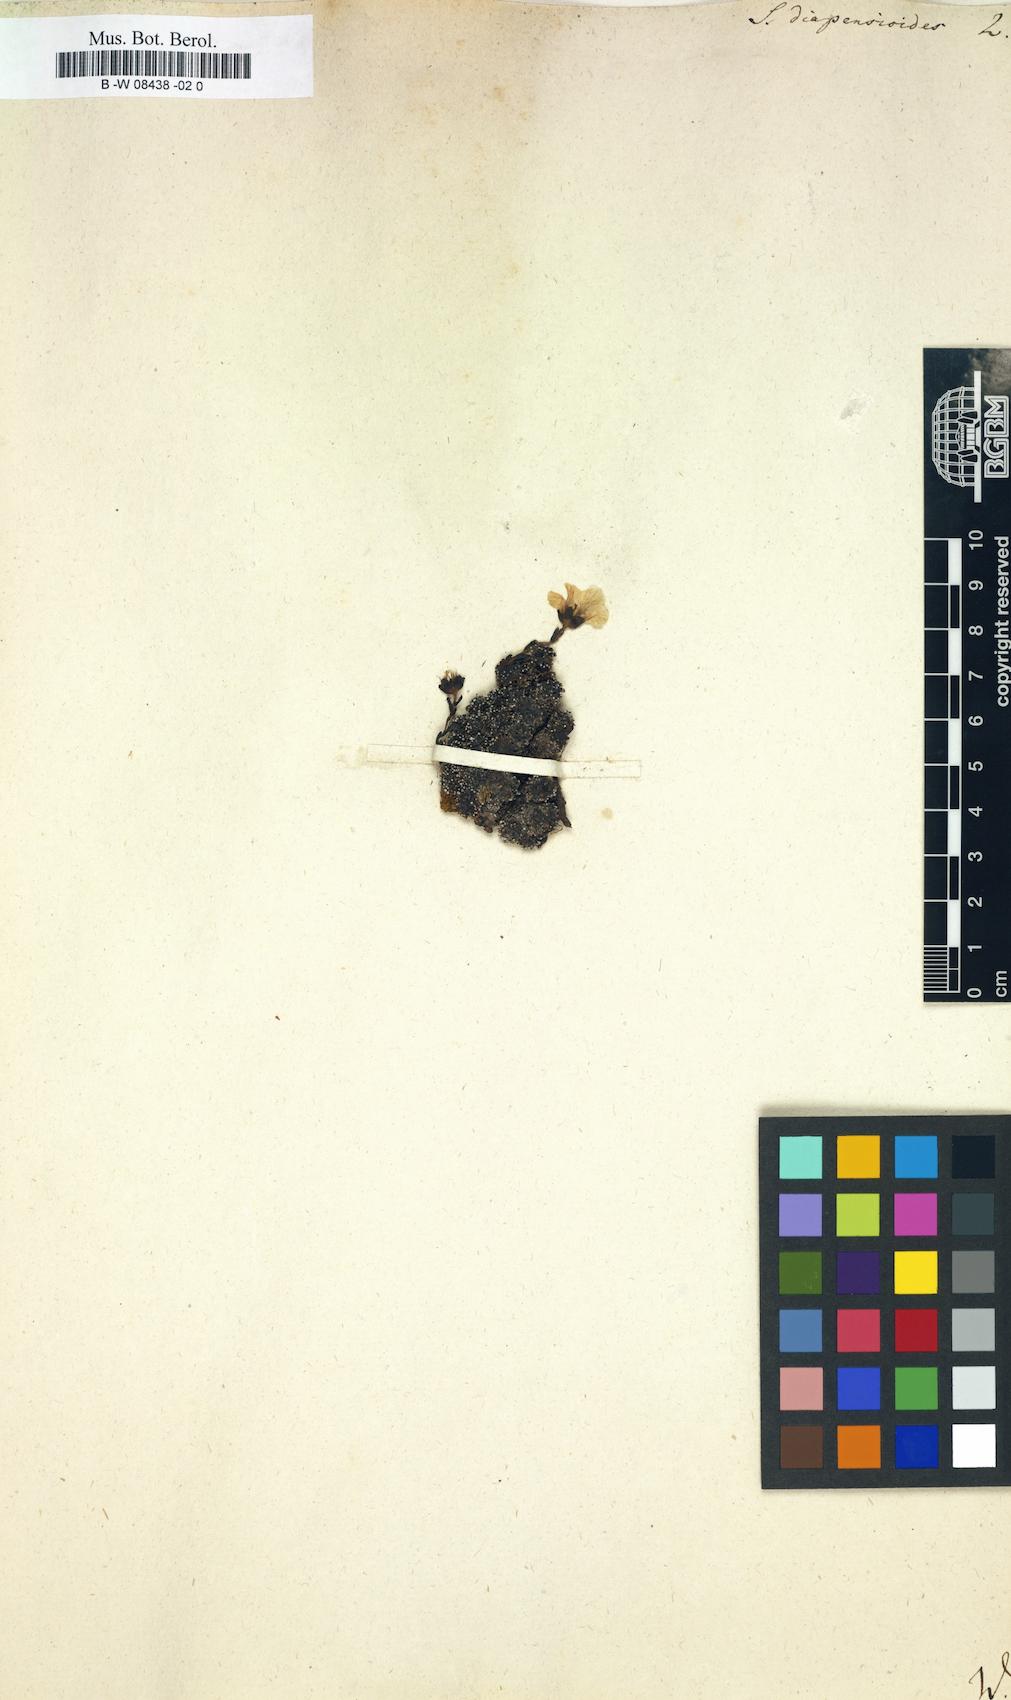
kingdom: Plantae
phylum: Tracheophyta
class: Magnoliopsida
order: Saxifragales
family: Saxifragaceae
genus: Saxifraga
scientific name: Saxifraga diapensioides
